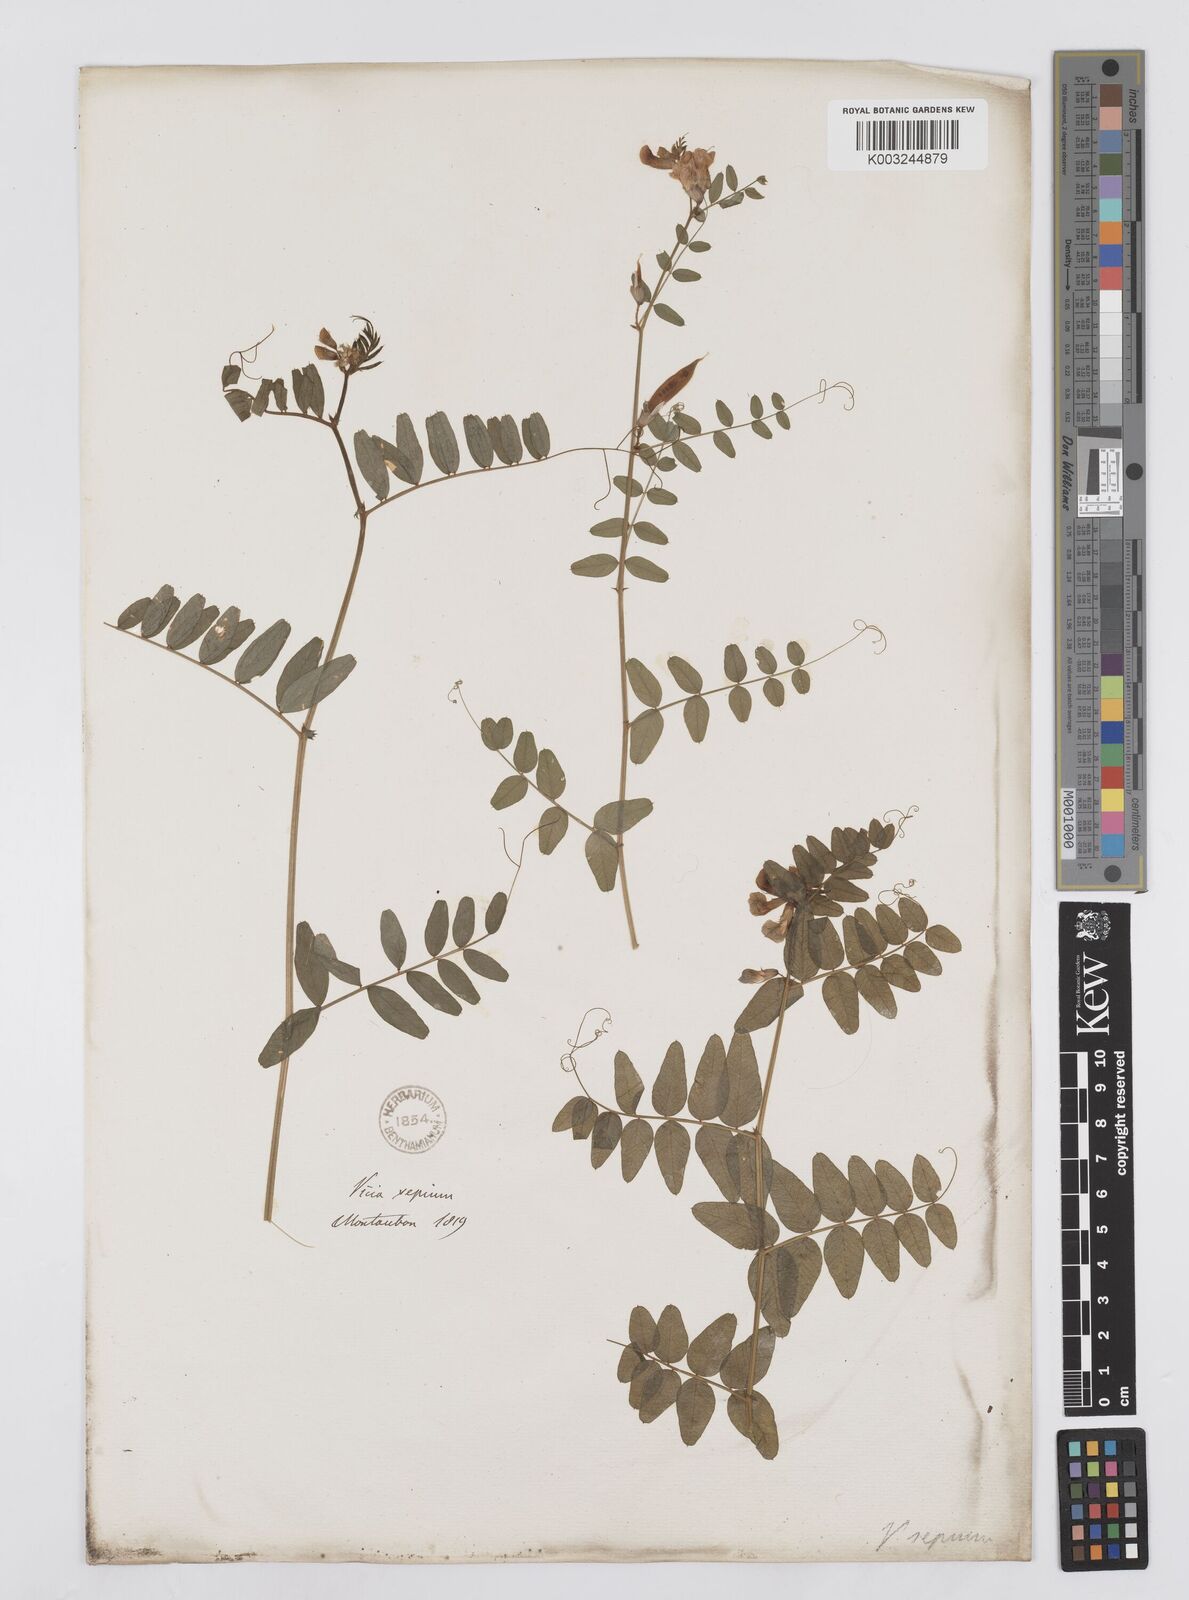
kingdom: Plantae
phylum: Tracheophyta
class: Magnoliopsida
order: Fabales
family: Fabaceae
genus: Vicia
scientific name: Vicia sepium
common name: Bush vetch
